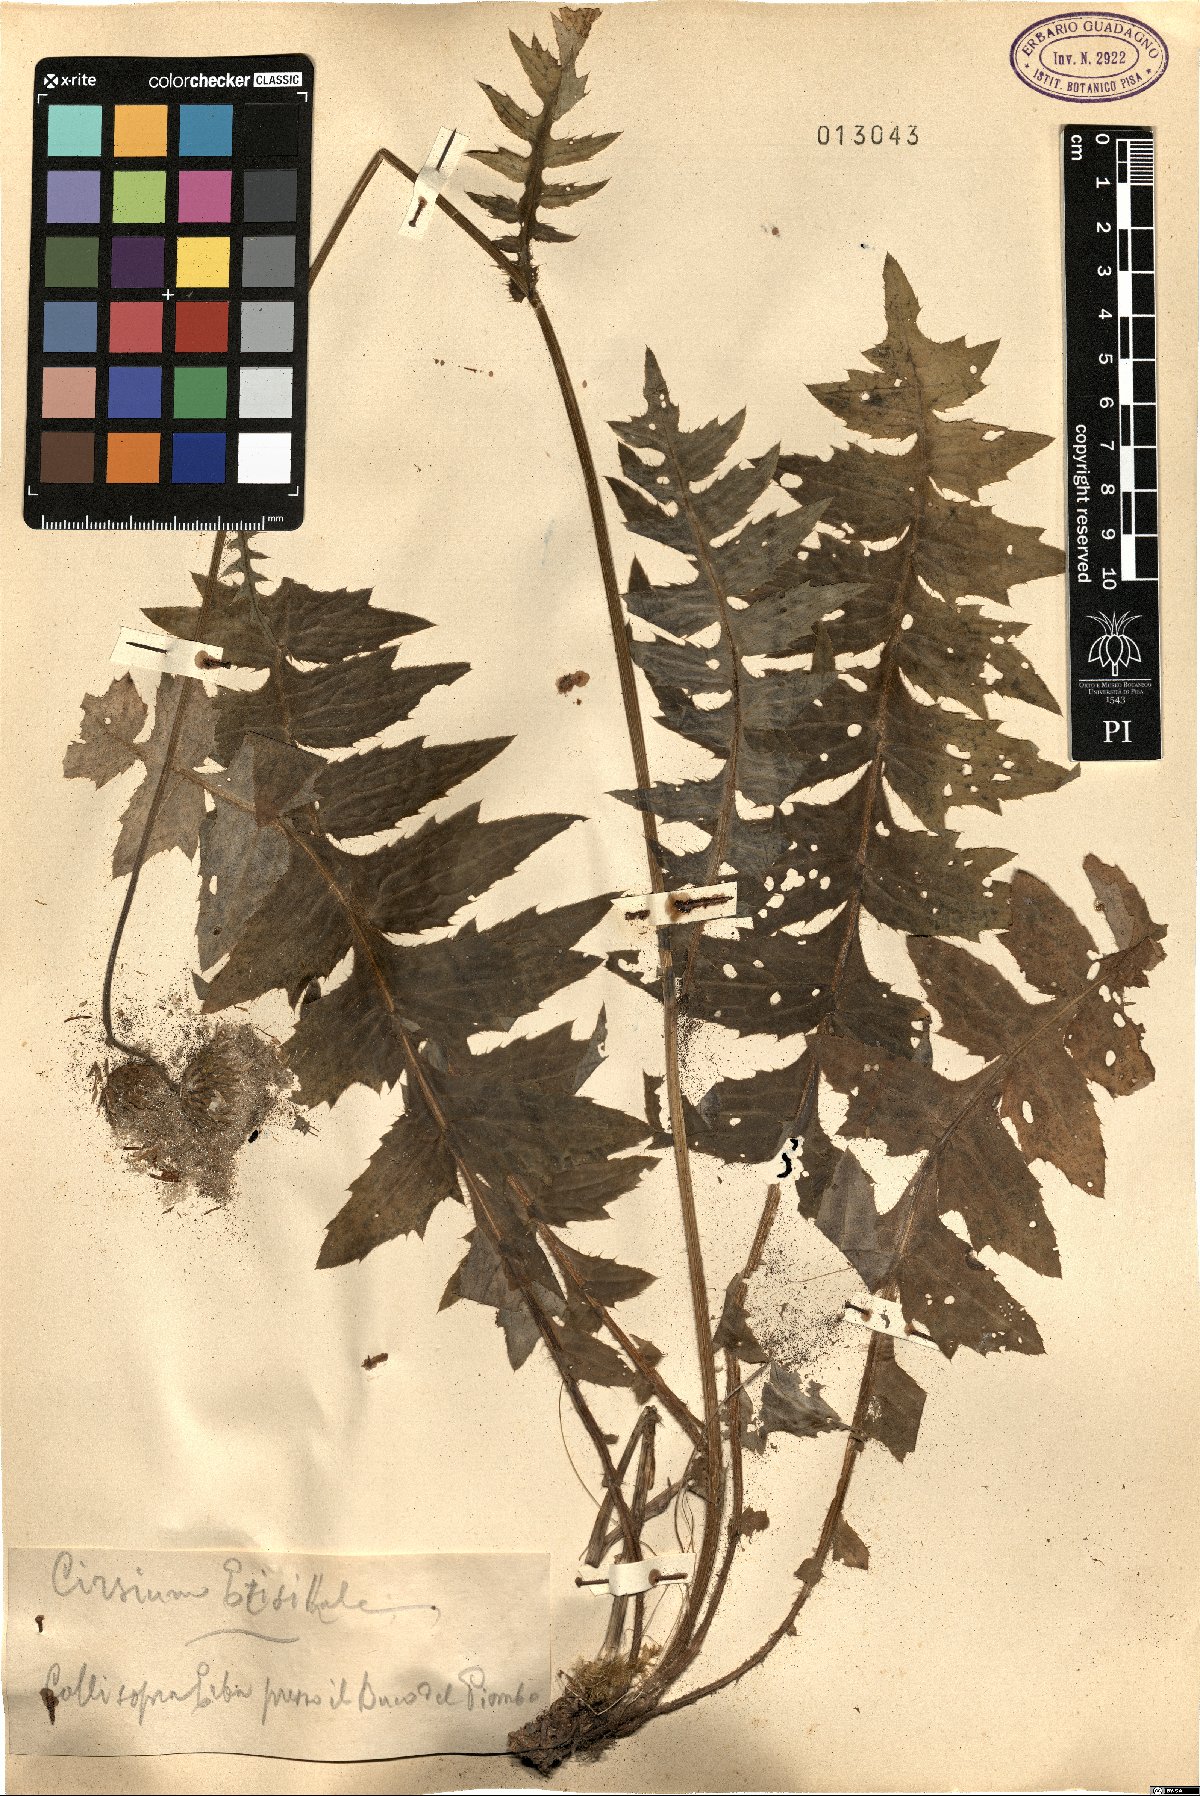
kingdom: Plantae
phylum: Tracheophyta
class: Magnoliopsida
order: Asterales
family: Asteraceae
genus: Cirsium
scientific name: Cirsium erisithales
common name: Yellow thistle
